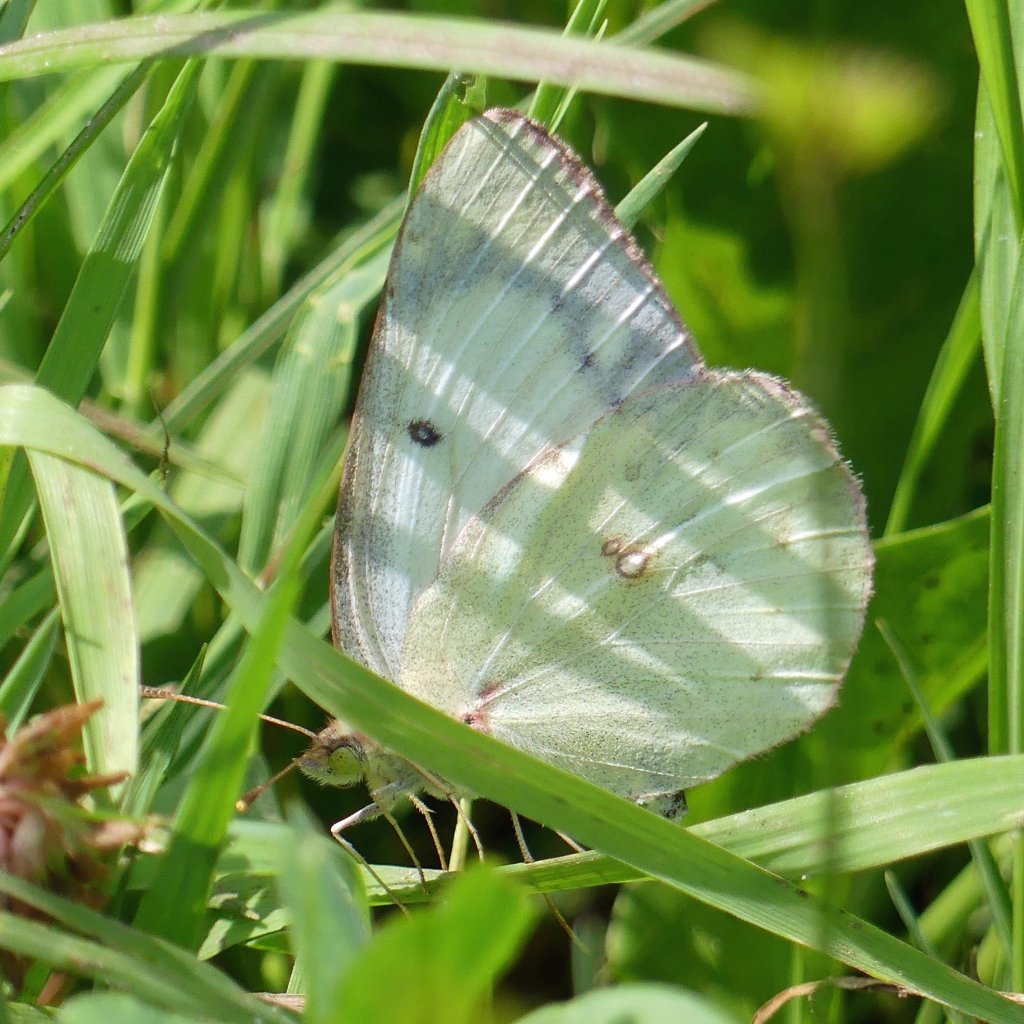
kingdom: Animalia
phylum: Arthropoda
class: Insecta
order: Lepidoptera
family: Pieridae
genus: Colias
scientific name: Colias philodice
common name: Clouded Sulphur
